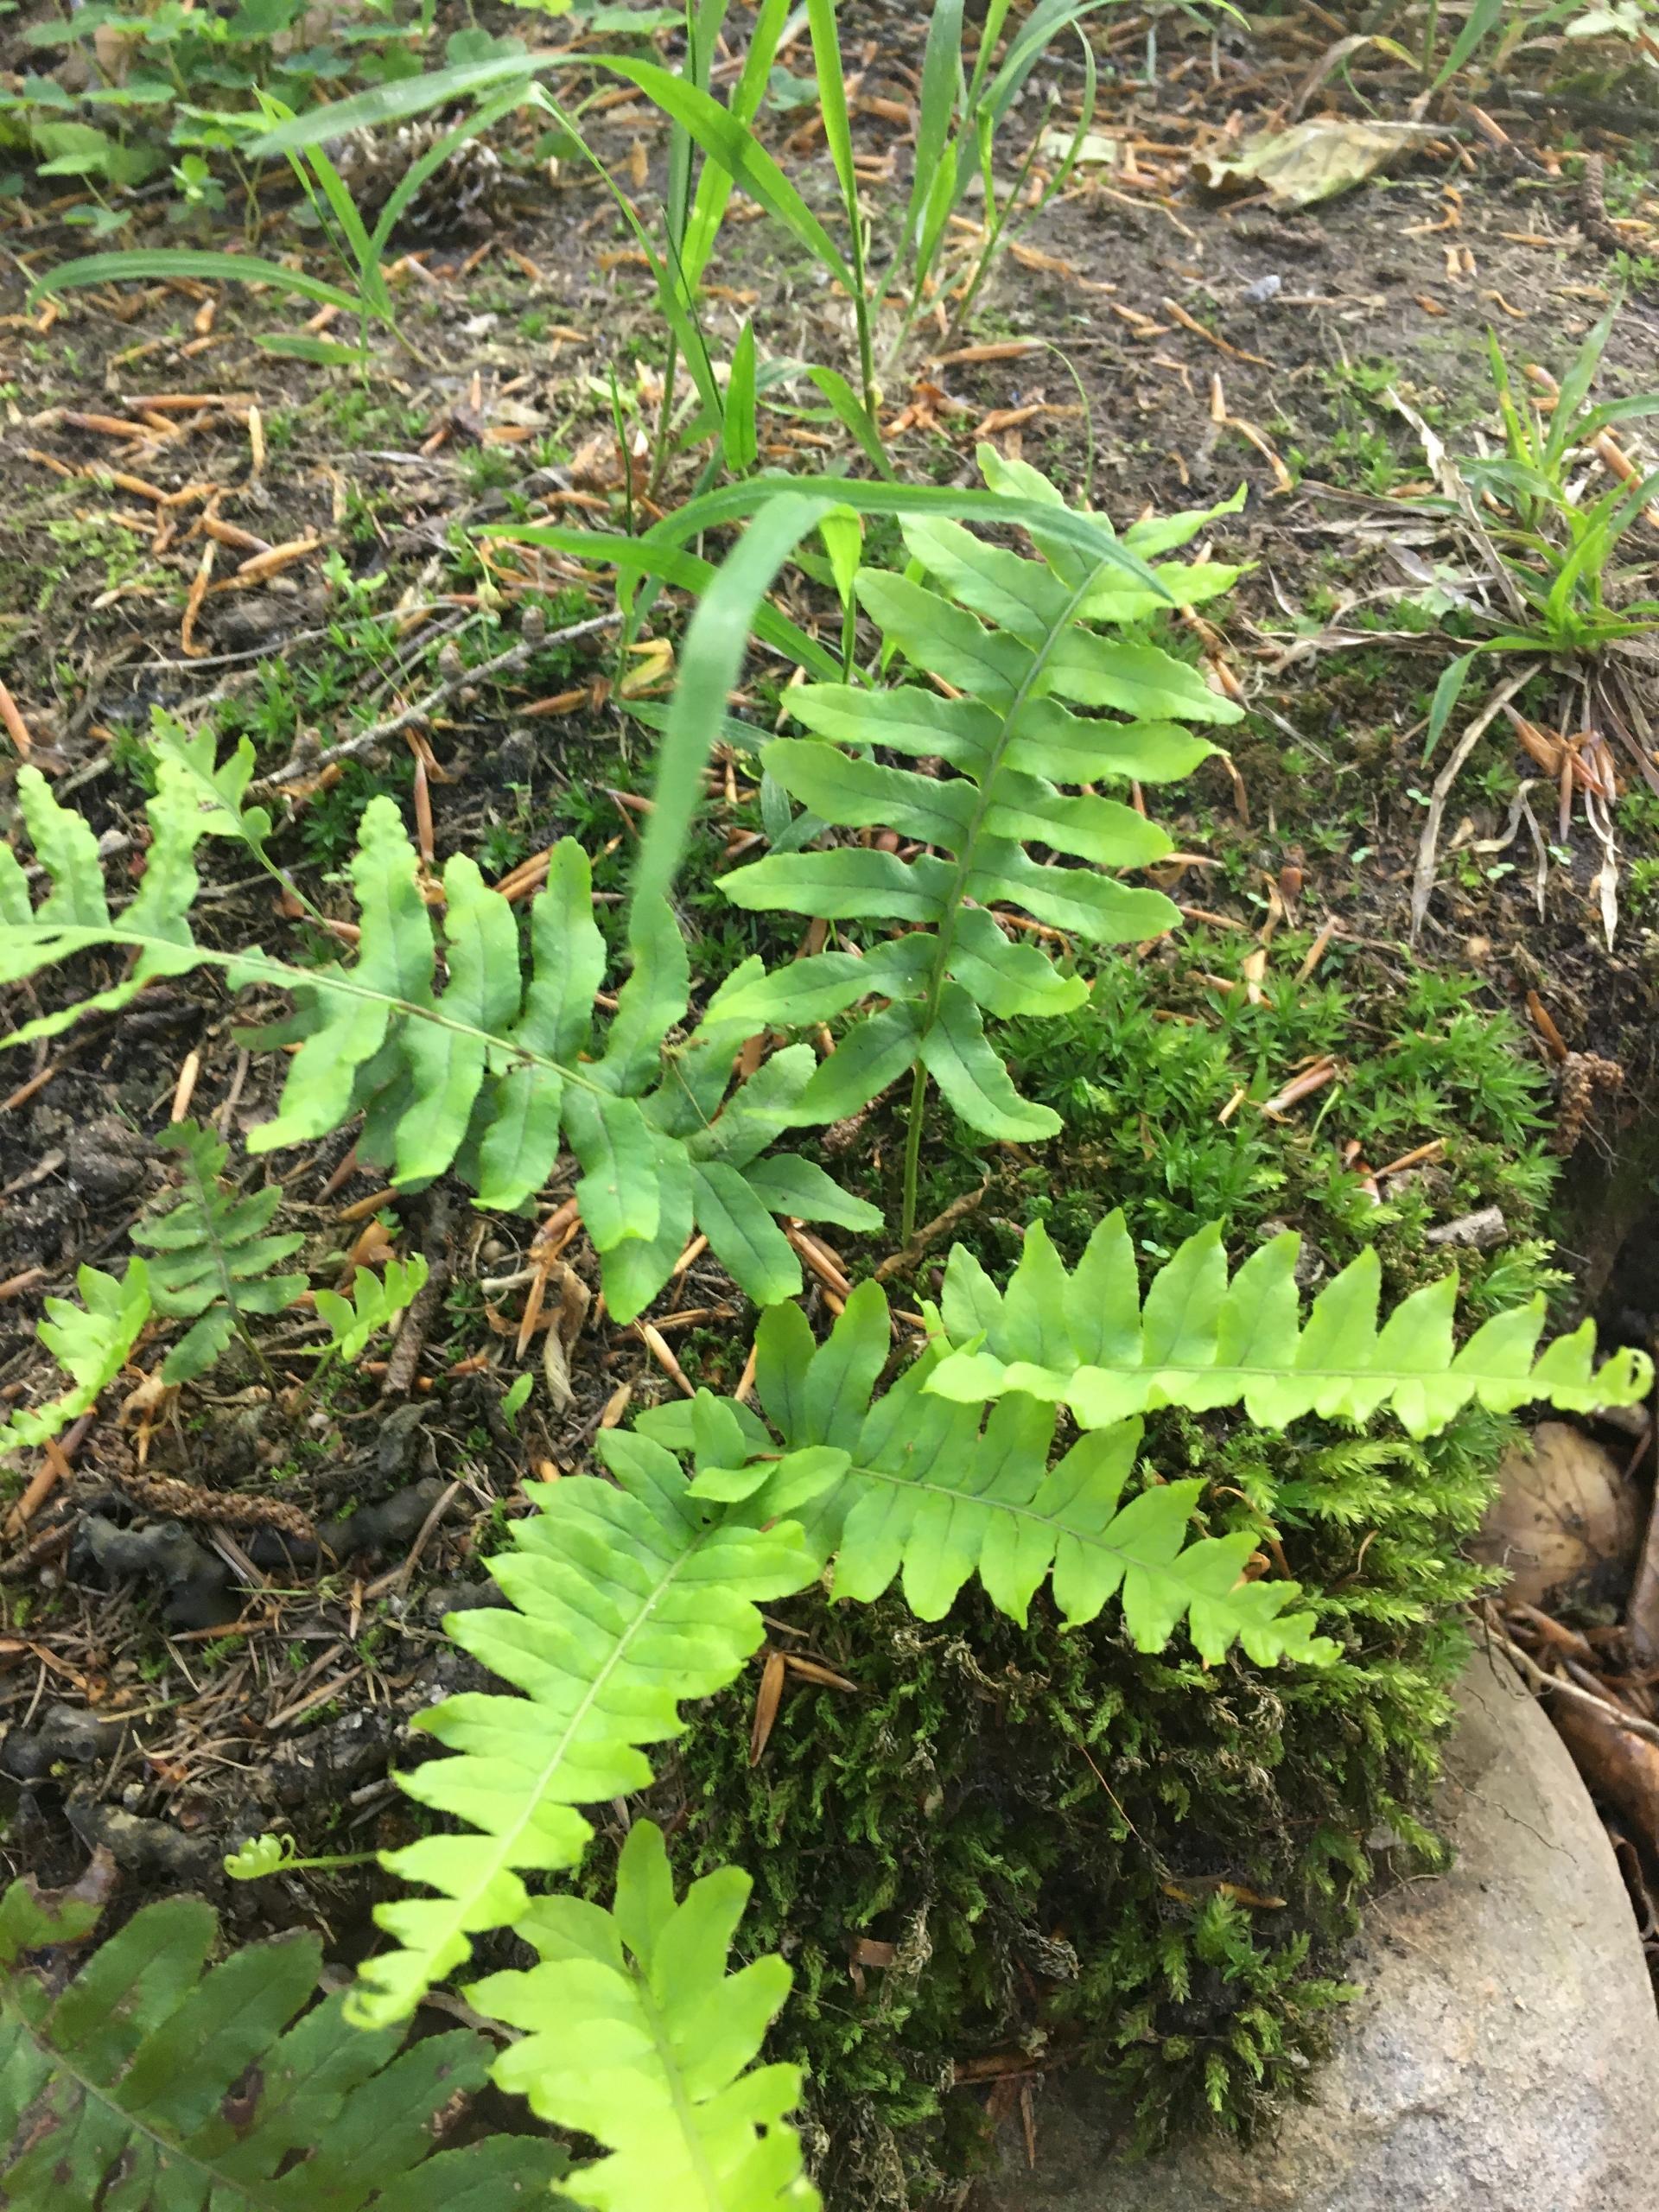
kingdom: Plantae
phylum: Tracheophyta
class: Polypodiopsida
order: Polypodiales
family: Polypodiaceae
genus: Polypodium
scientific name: Polypodium vulgare
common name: Almindelig engelsød
